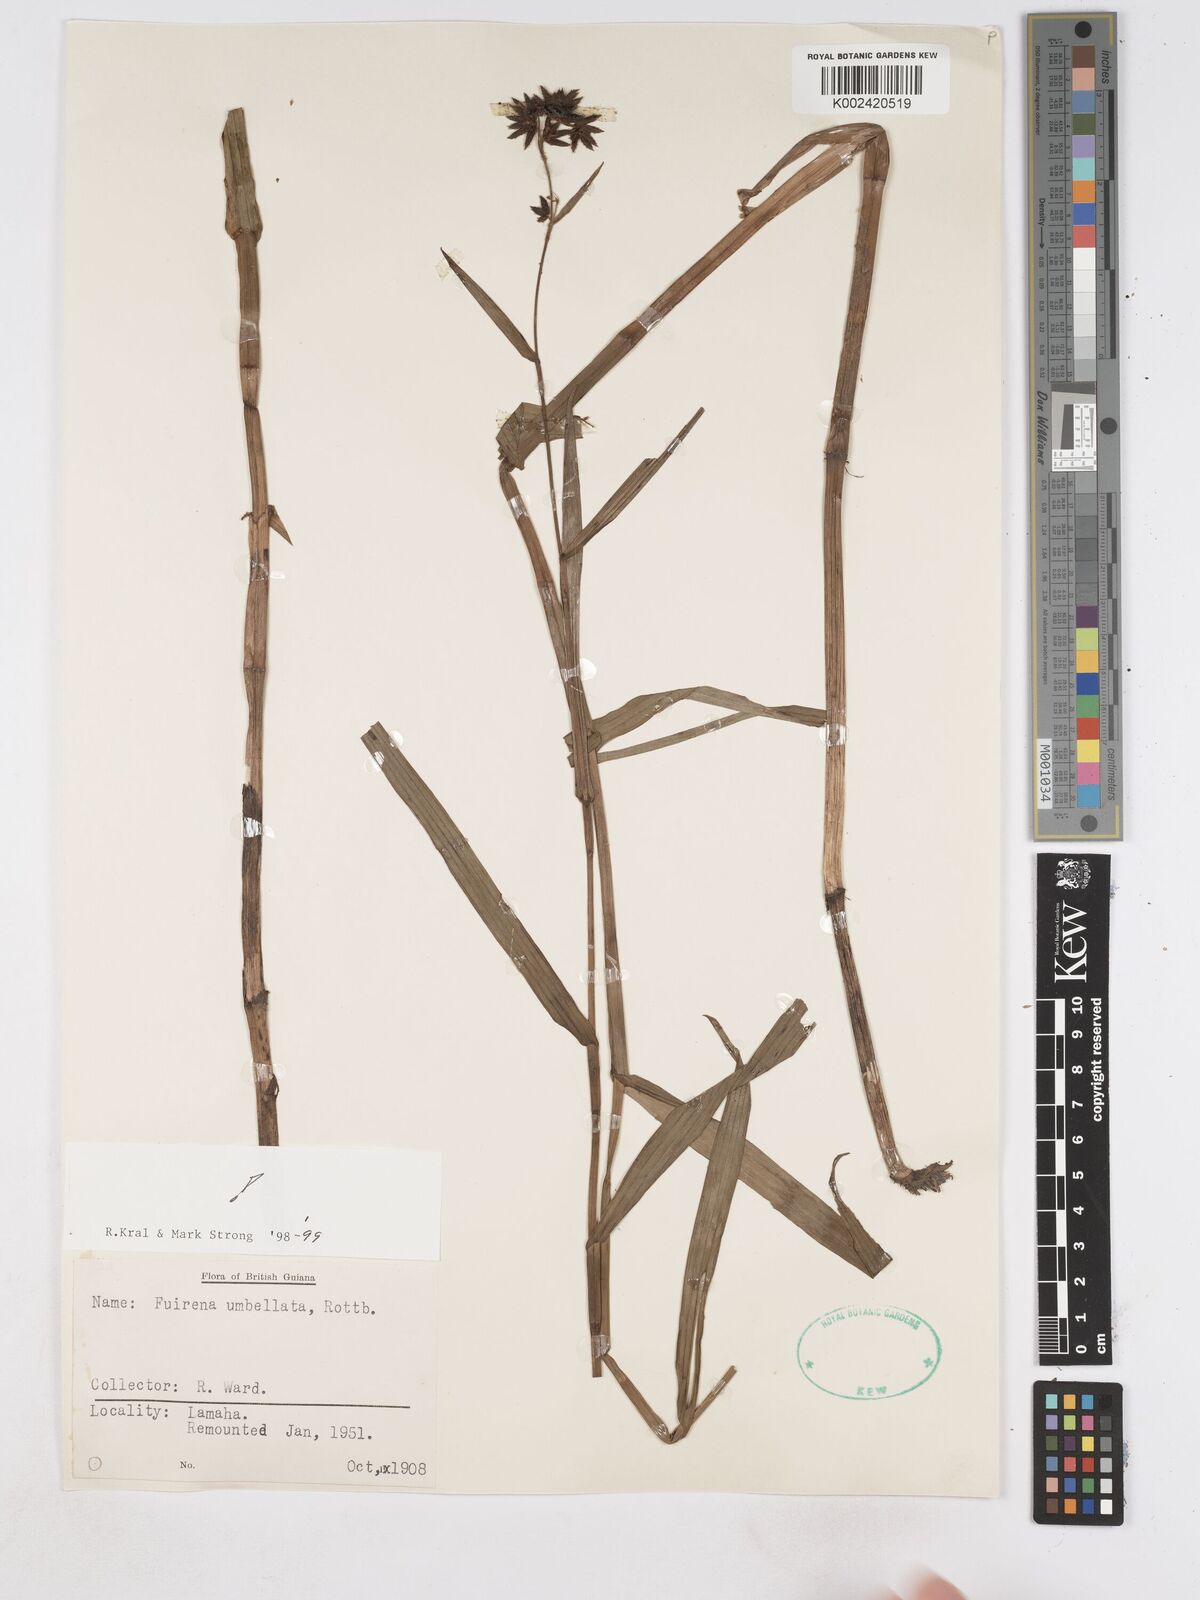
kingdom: Plantae
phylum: Tracheophyta
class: Liliopsida
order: Poales
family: Cyperaceae
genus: Fuirena
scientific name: Fuirena umbellata
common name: Yefen
